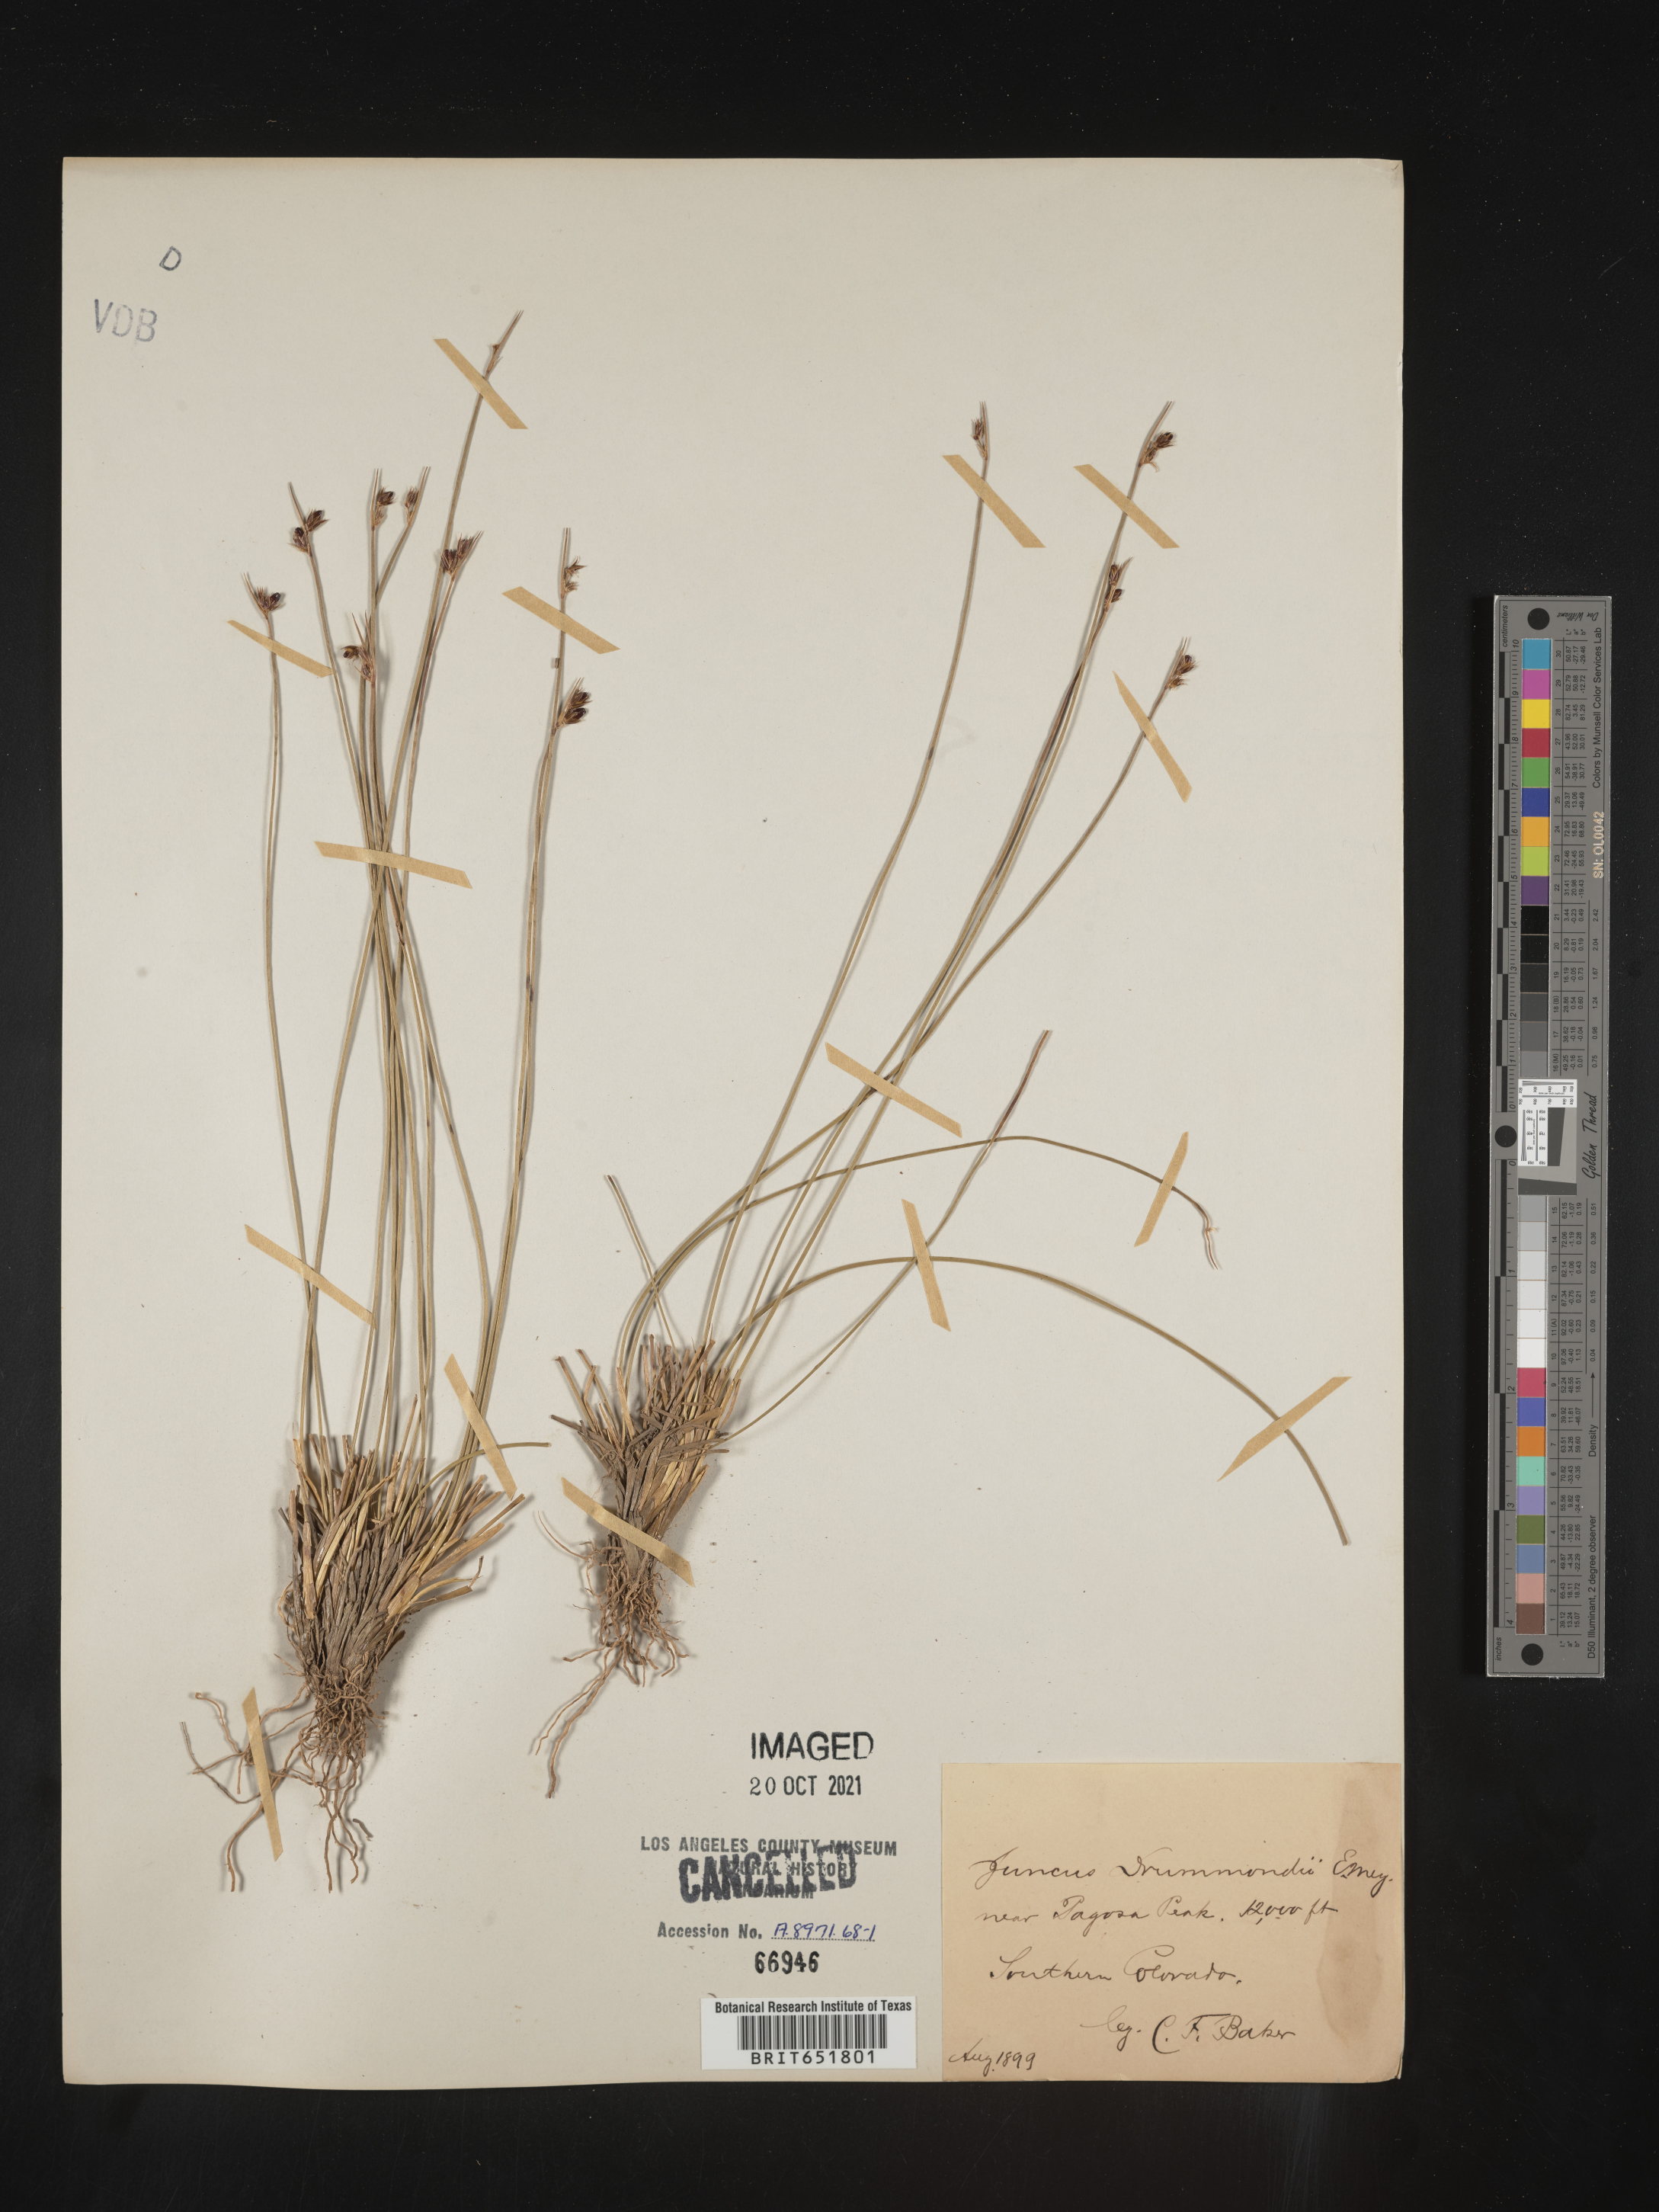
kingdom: Plantae
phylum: Tracheophyta
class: Liliopsida
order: Poales
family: Juncaceae
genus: Juncus
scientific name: Juncus drummondii
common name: Drummond's rush
